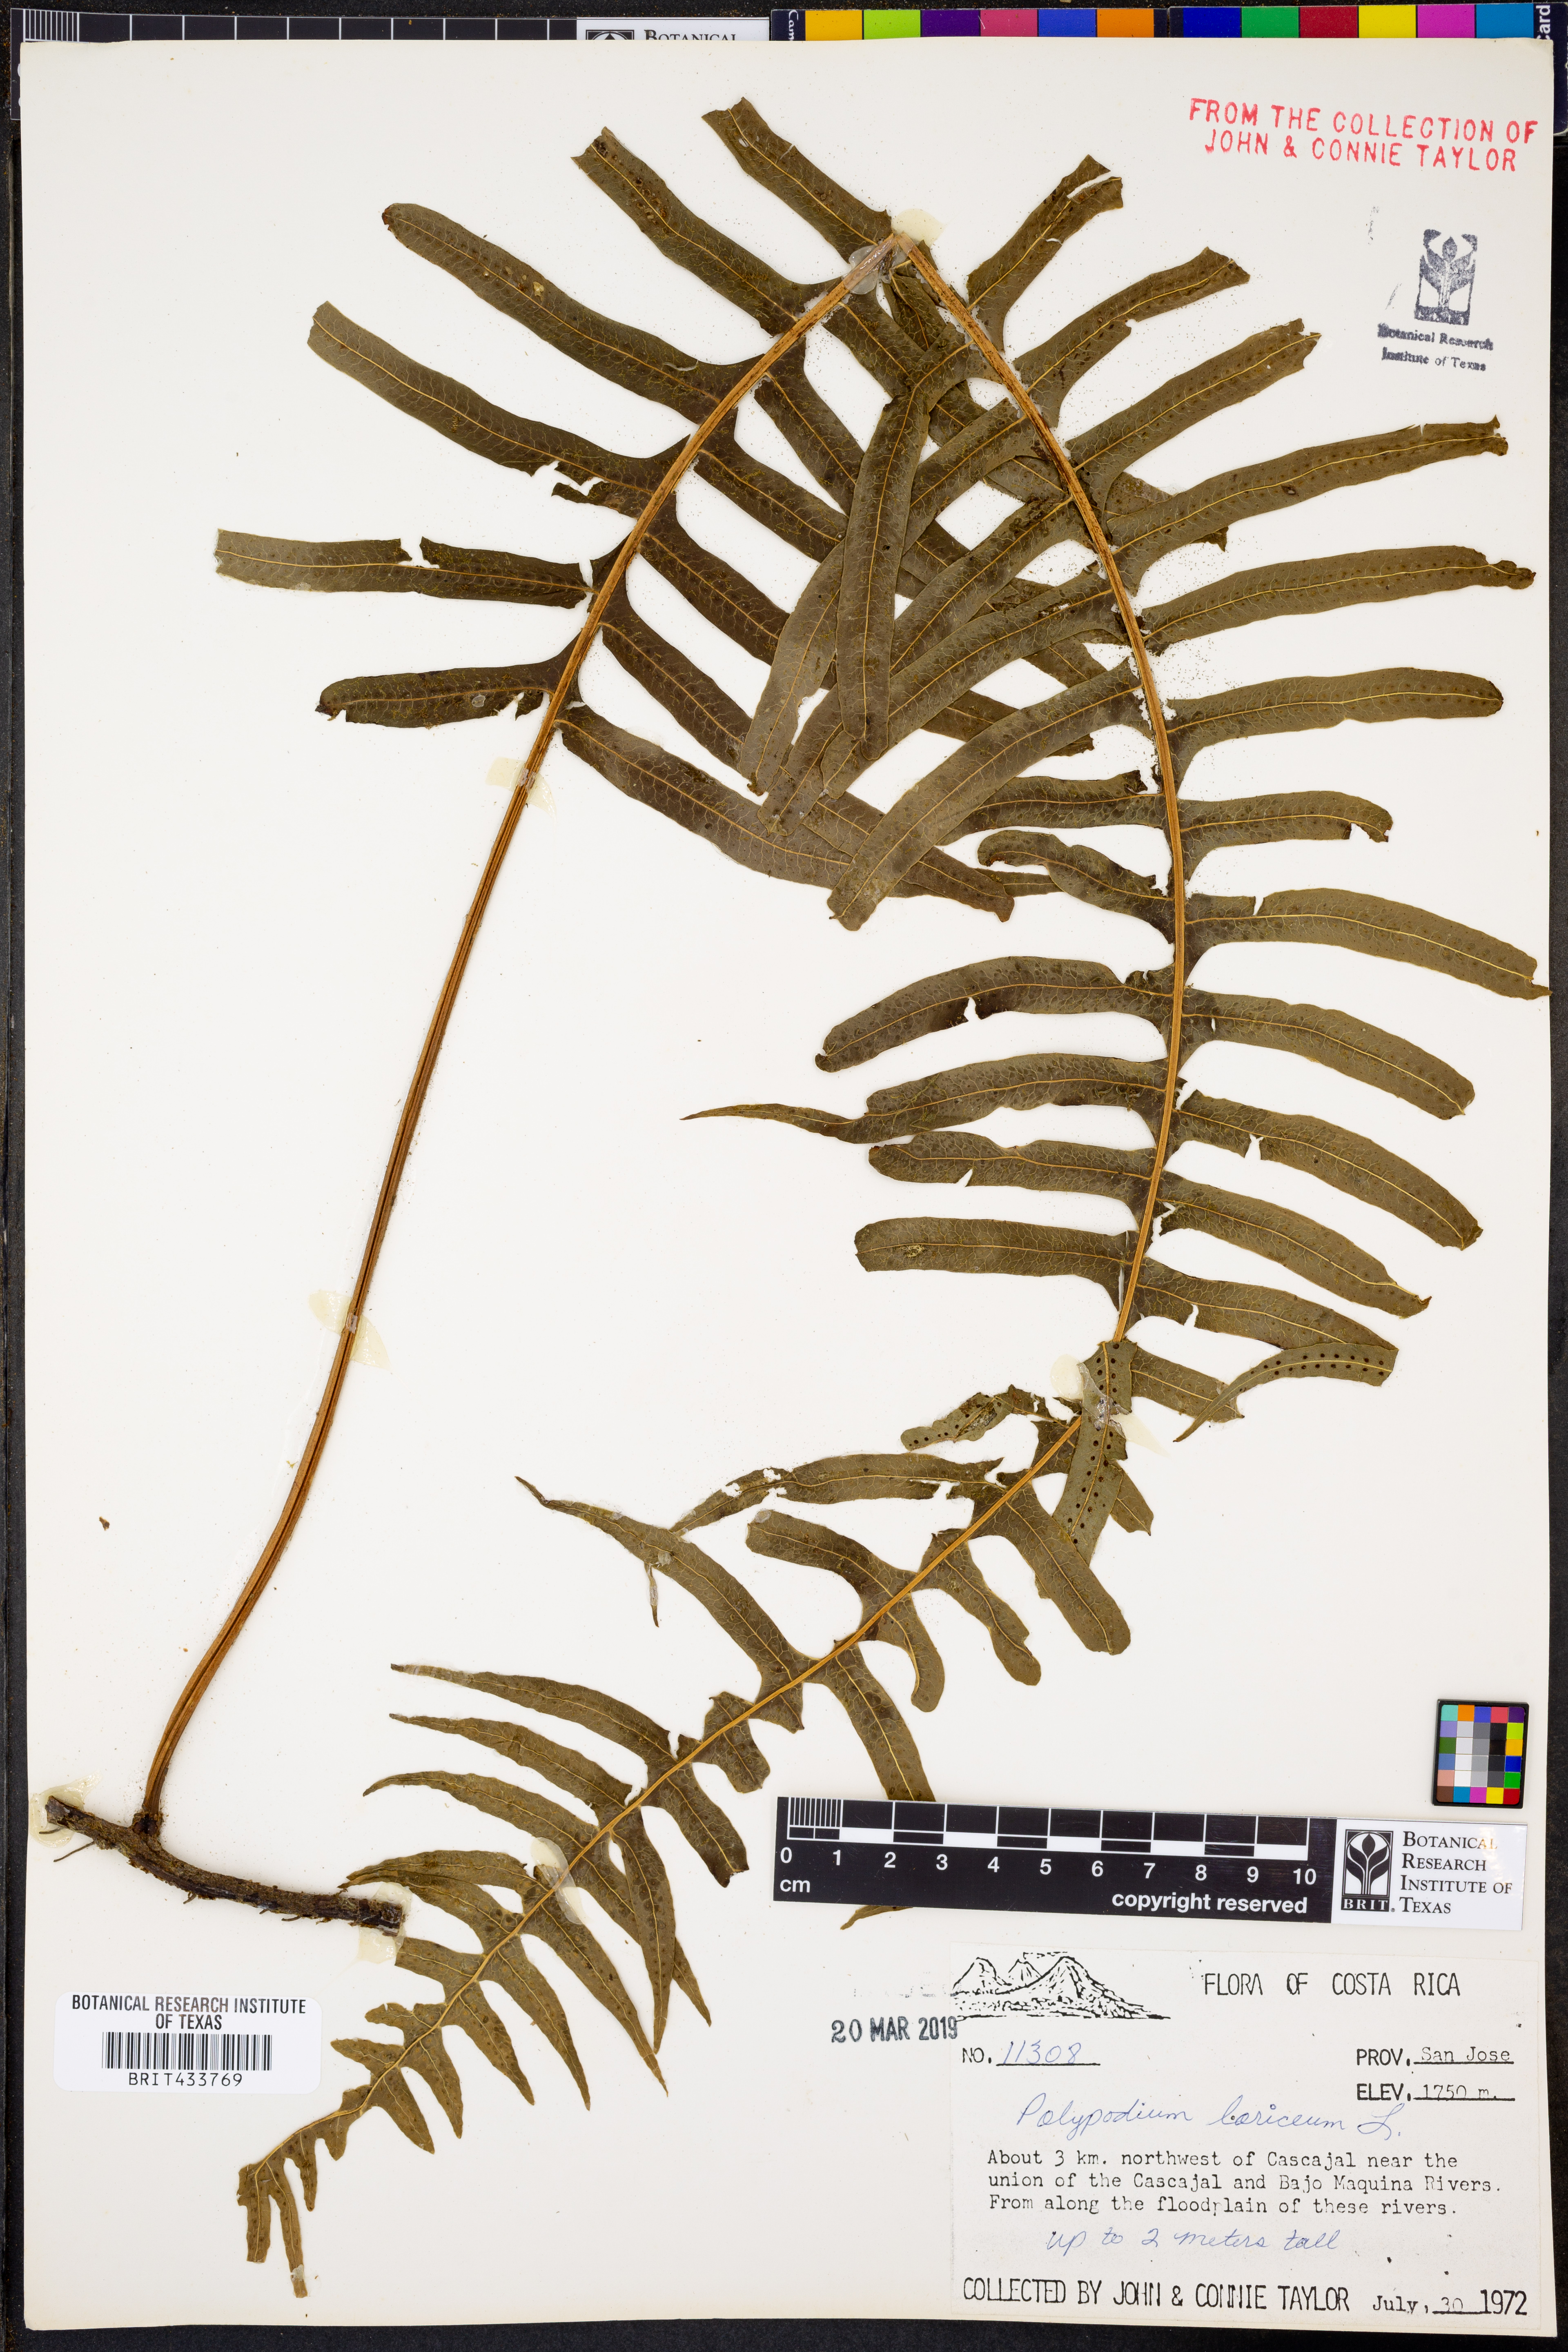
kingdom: Plantae
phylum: Tracheophyta
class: Polypodiopsida
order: Polypodiales
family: Polypodiaceae
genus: Serpocaulon
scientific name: Serpocaulon loriceum
